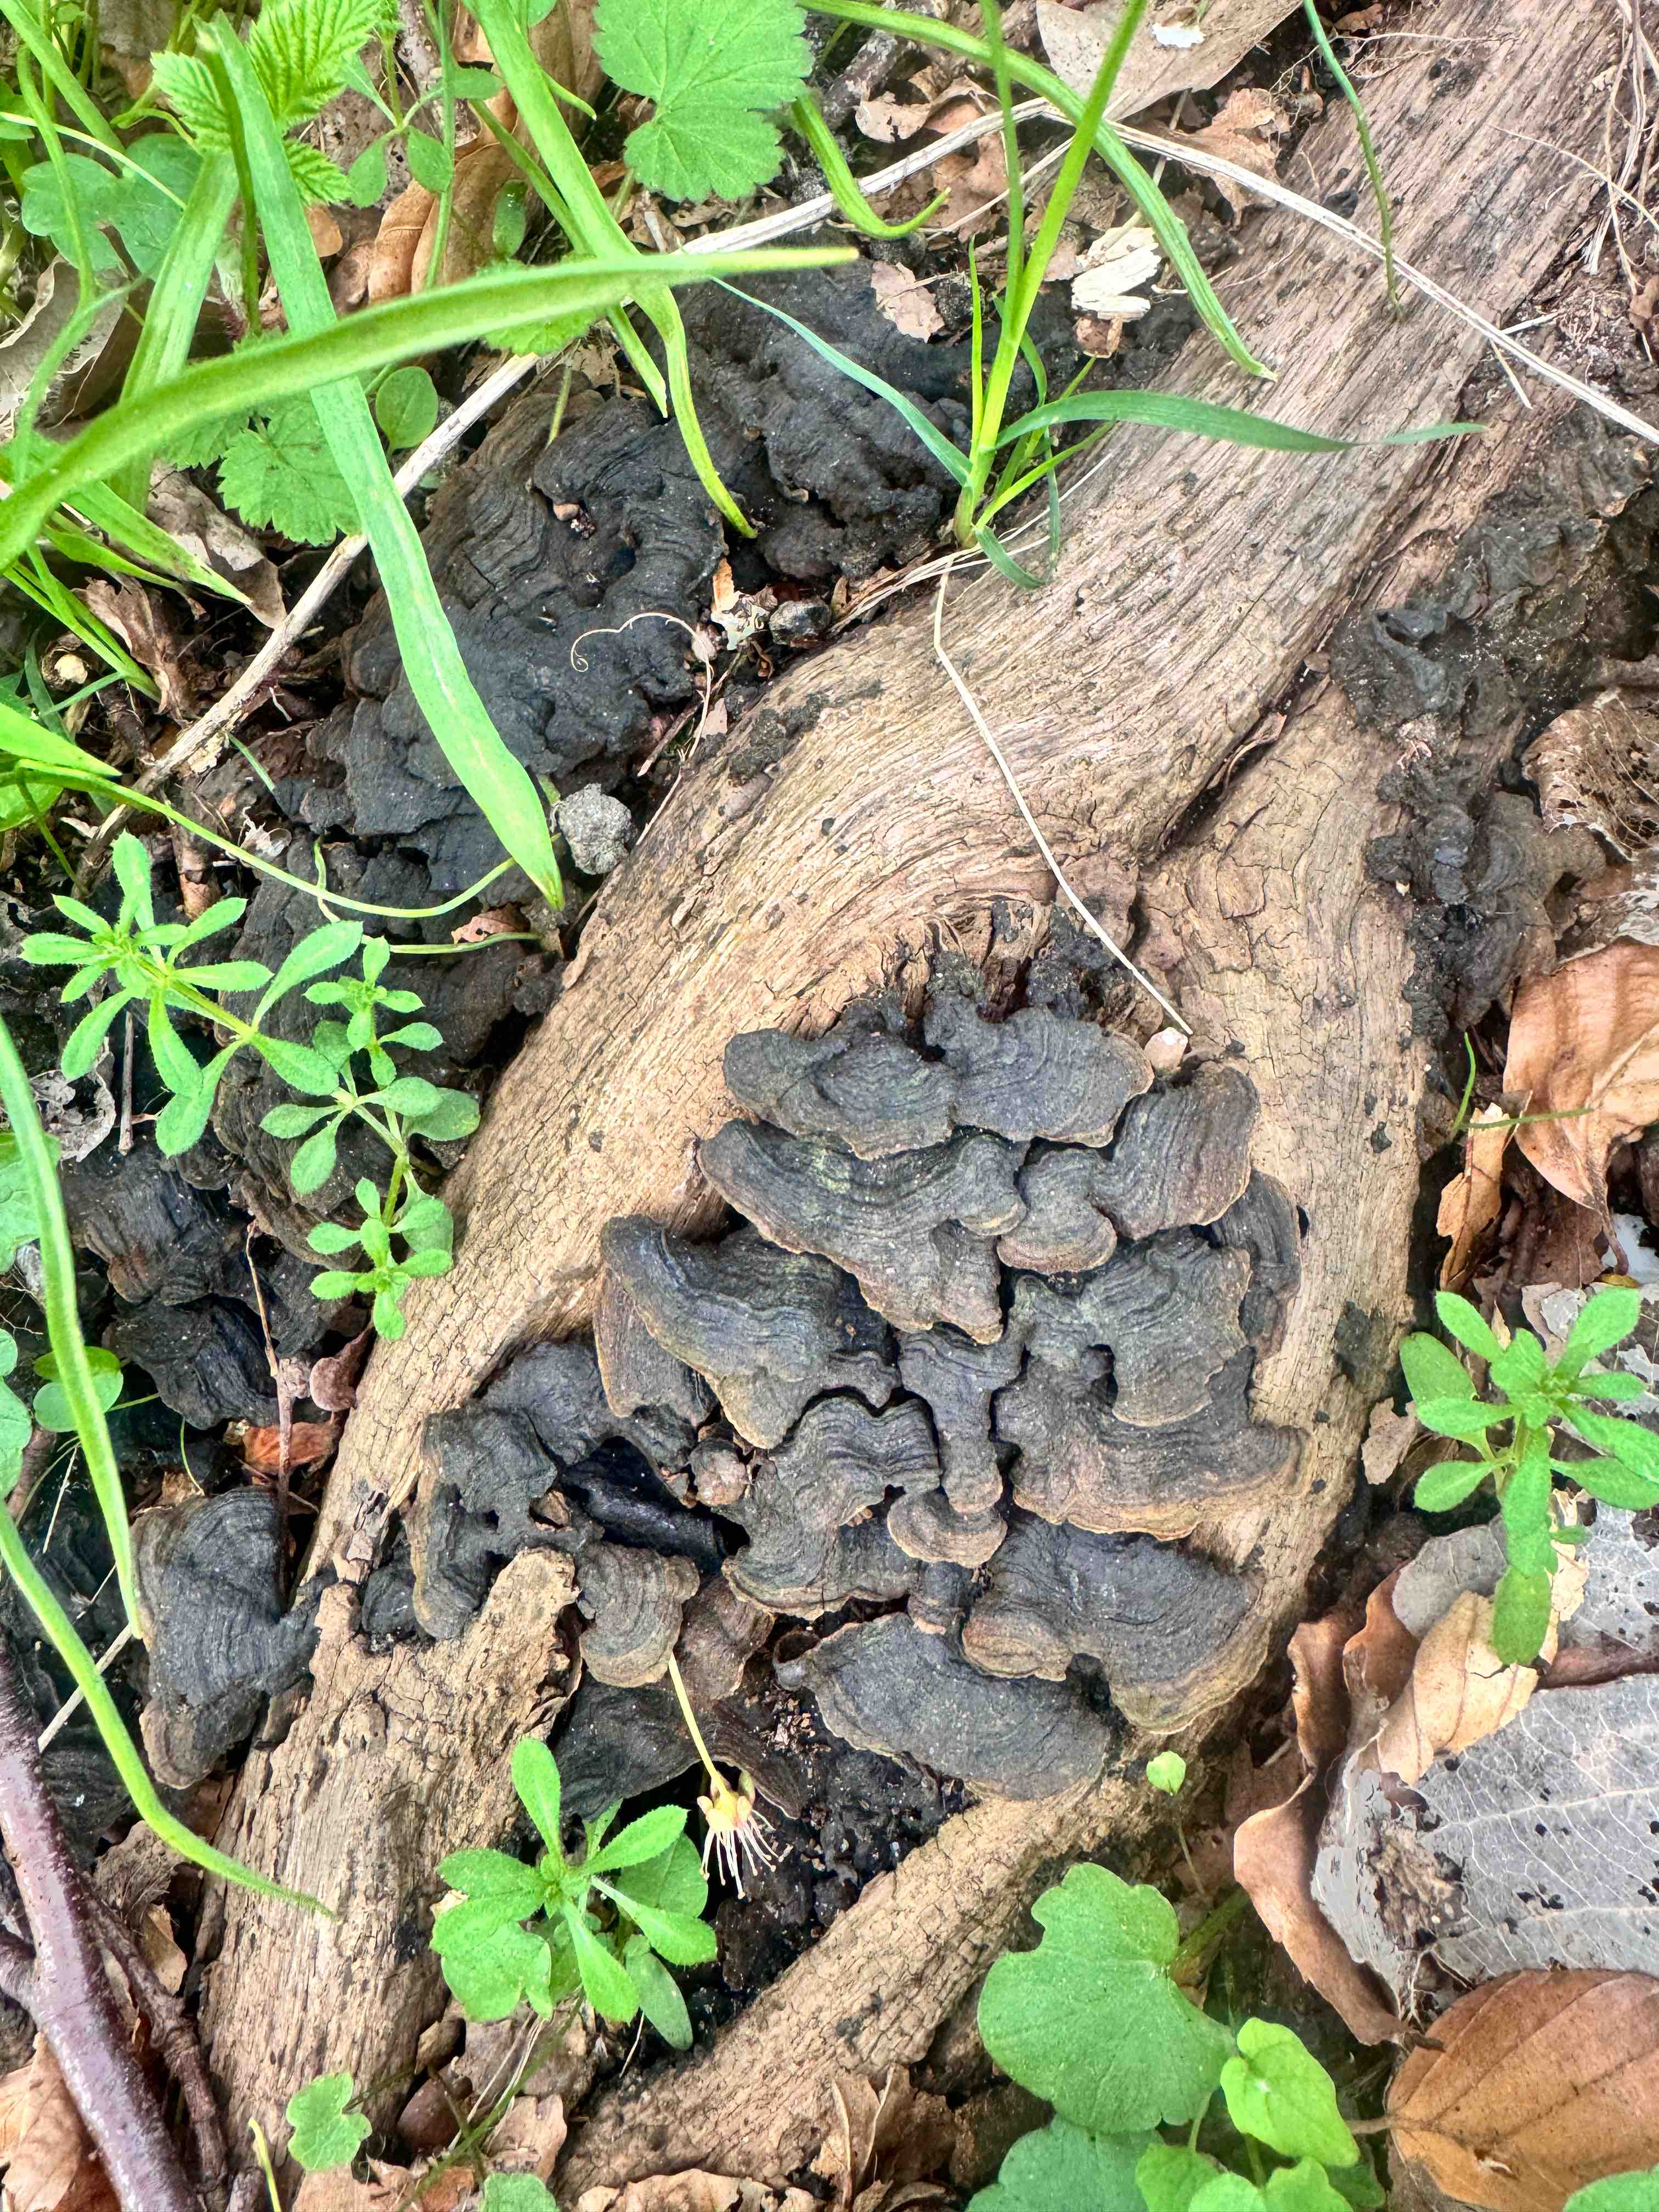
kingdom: Fungi
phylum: Basidiomycota
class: Agaricomycetes
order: Hymenochaetales
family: Hymenochaetaceae
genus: Hymenochaete
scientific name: Hymenochaete rubiginosa
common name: stiv ruslædersvamp
